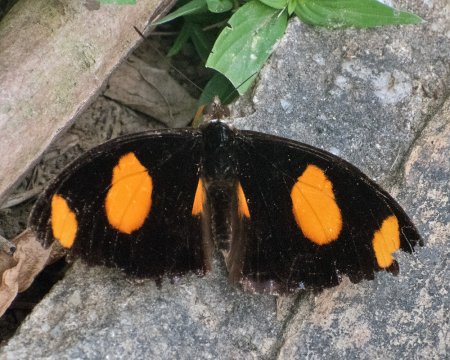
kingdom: Animalia
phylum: Arthropoda
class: Insecta
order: Lepidoptera
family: Nymphalidae
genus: Catonephele
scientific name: Catonephele numilia
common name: Blue-frosted Banner
